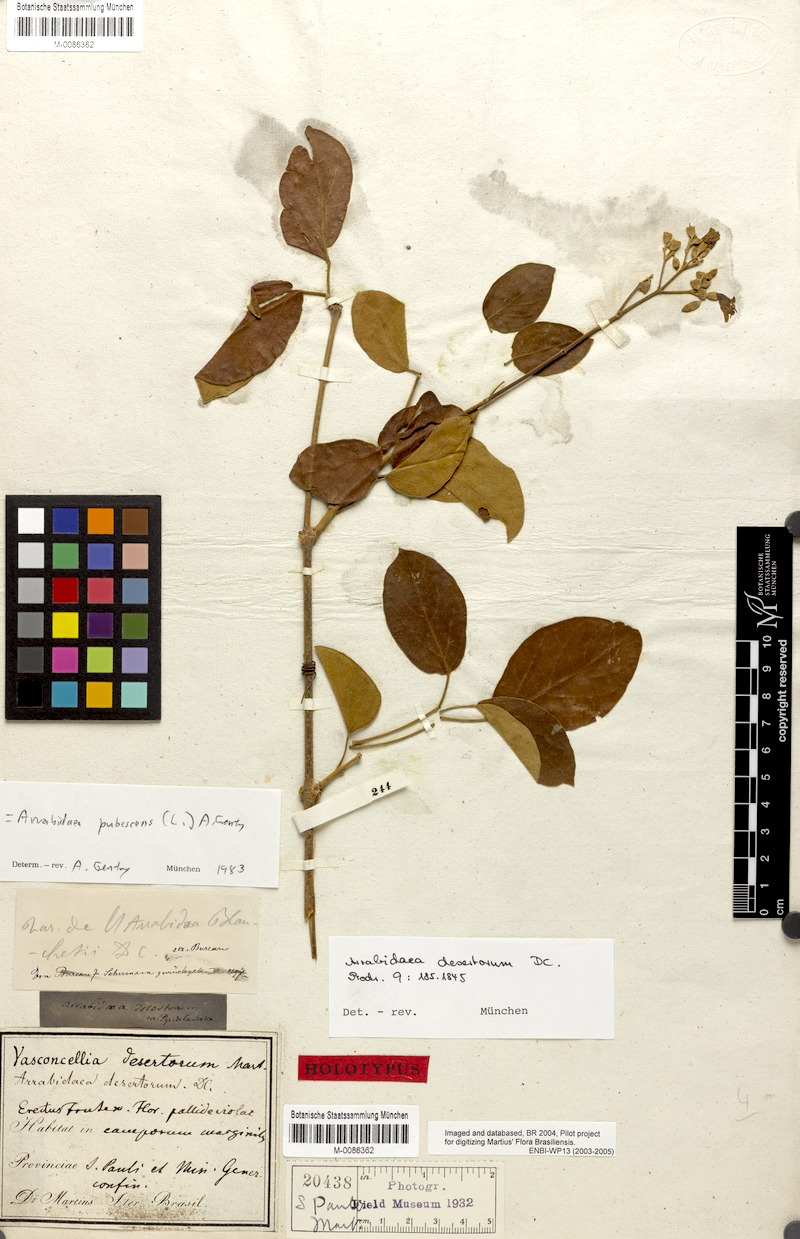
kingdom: Plantae
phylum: Tracheophyta
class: Magnoliopsida
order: Lamiales
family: Bignoniaceae
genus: Fridericia
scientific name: Fridericia pubescens
